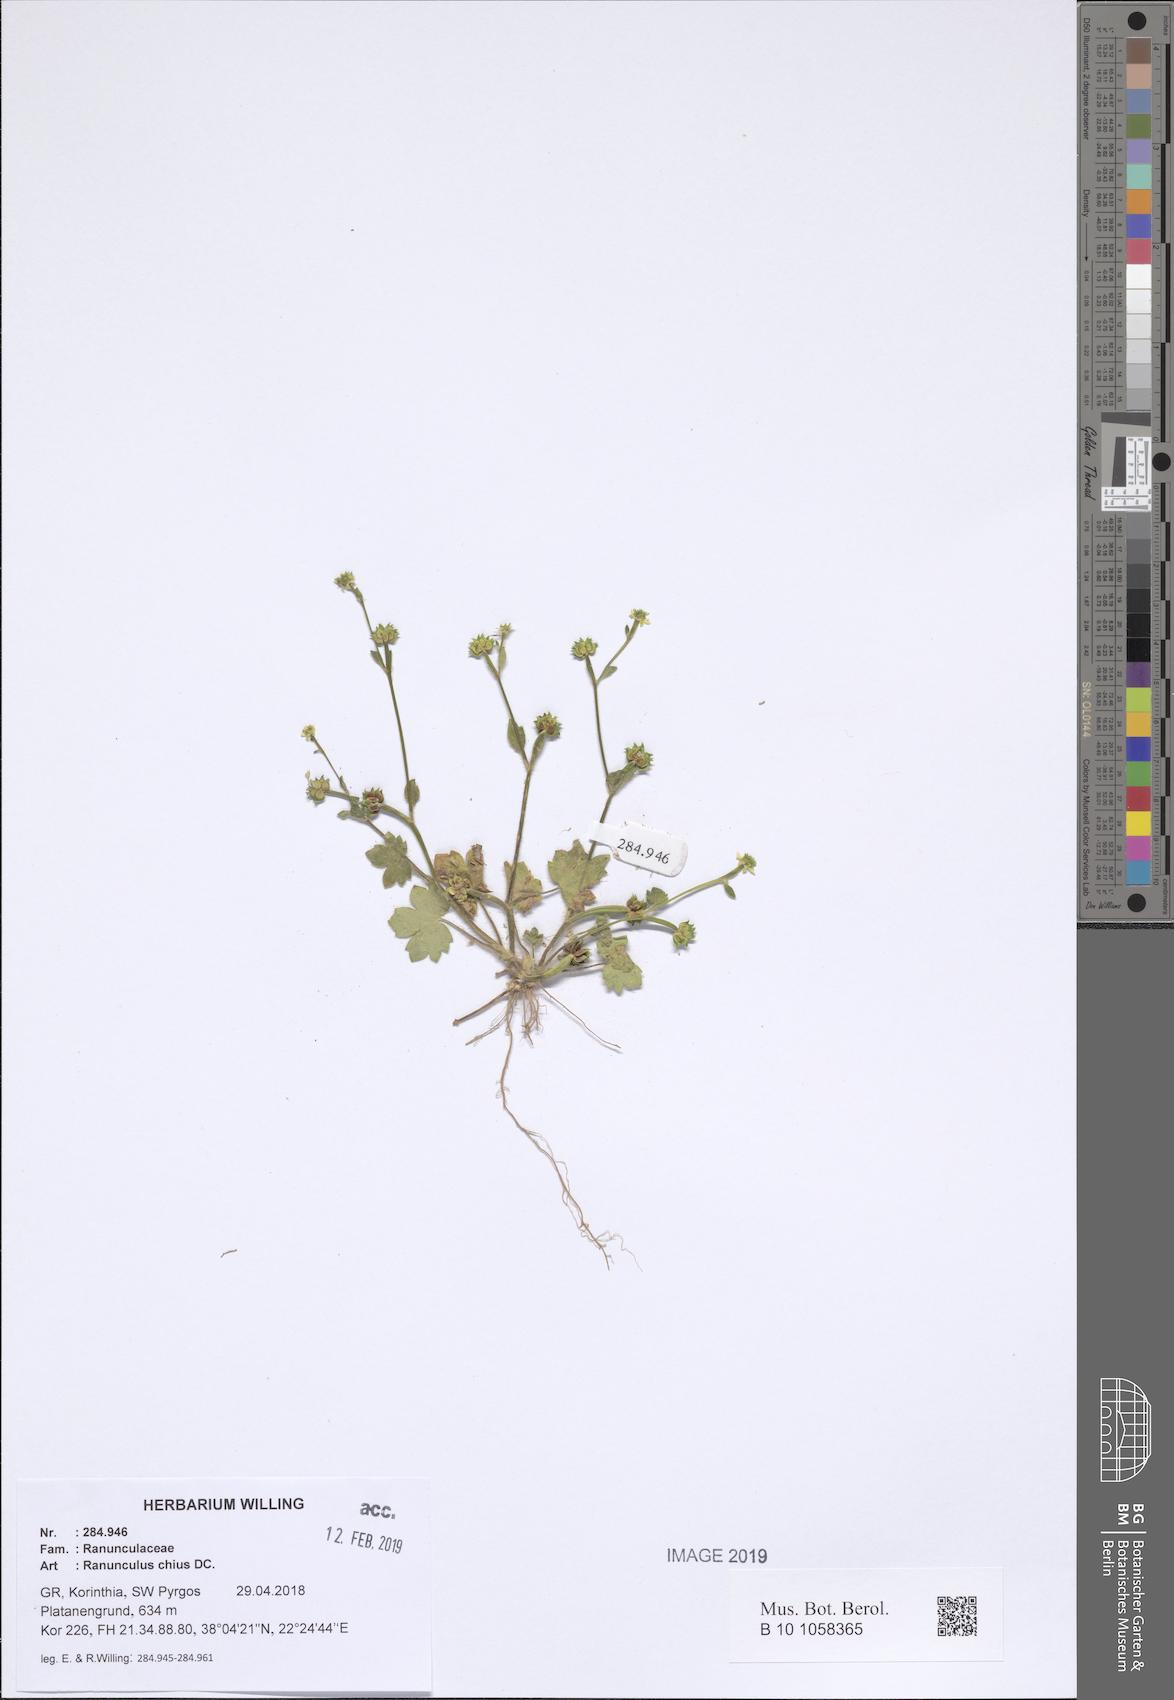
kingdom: Plantae
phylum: Tracheophyta
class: Magnoliopsida
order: Ranunculales
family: Ranunculaceae
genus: Ranunculus
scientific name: Ranunculus chius
